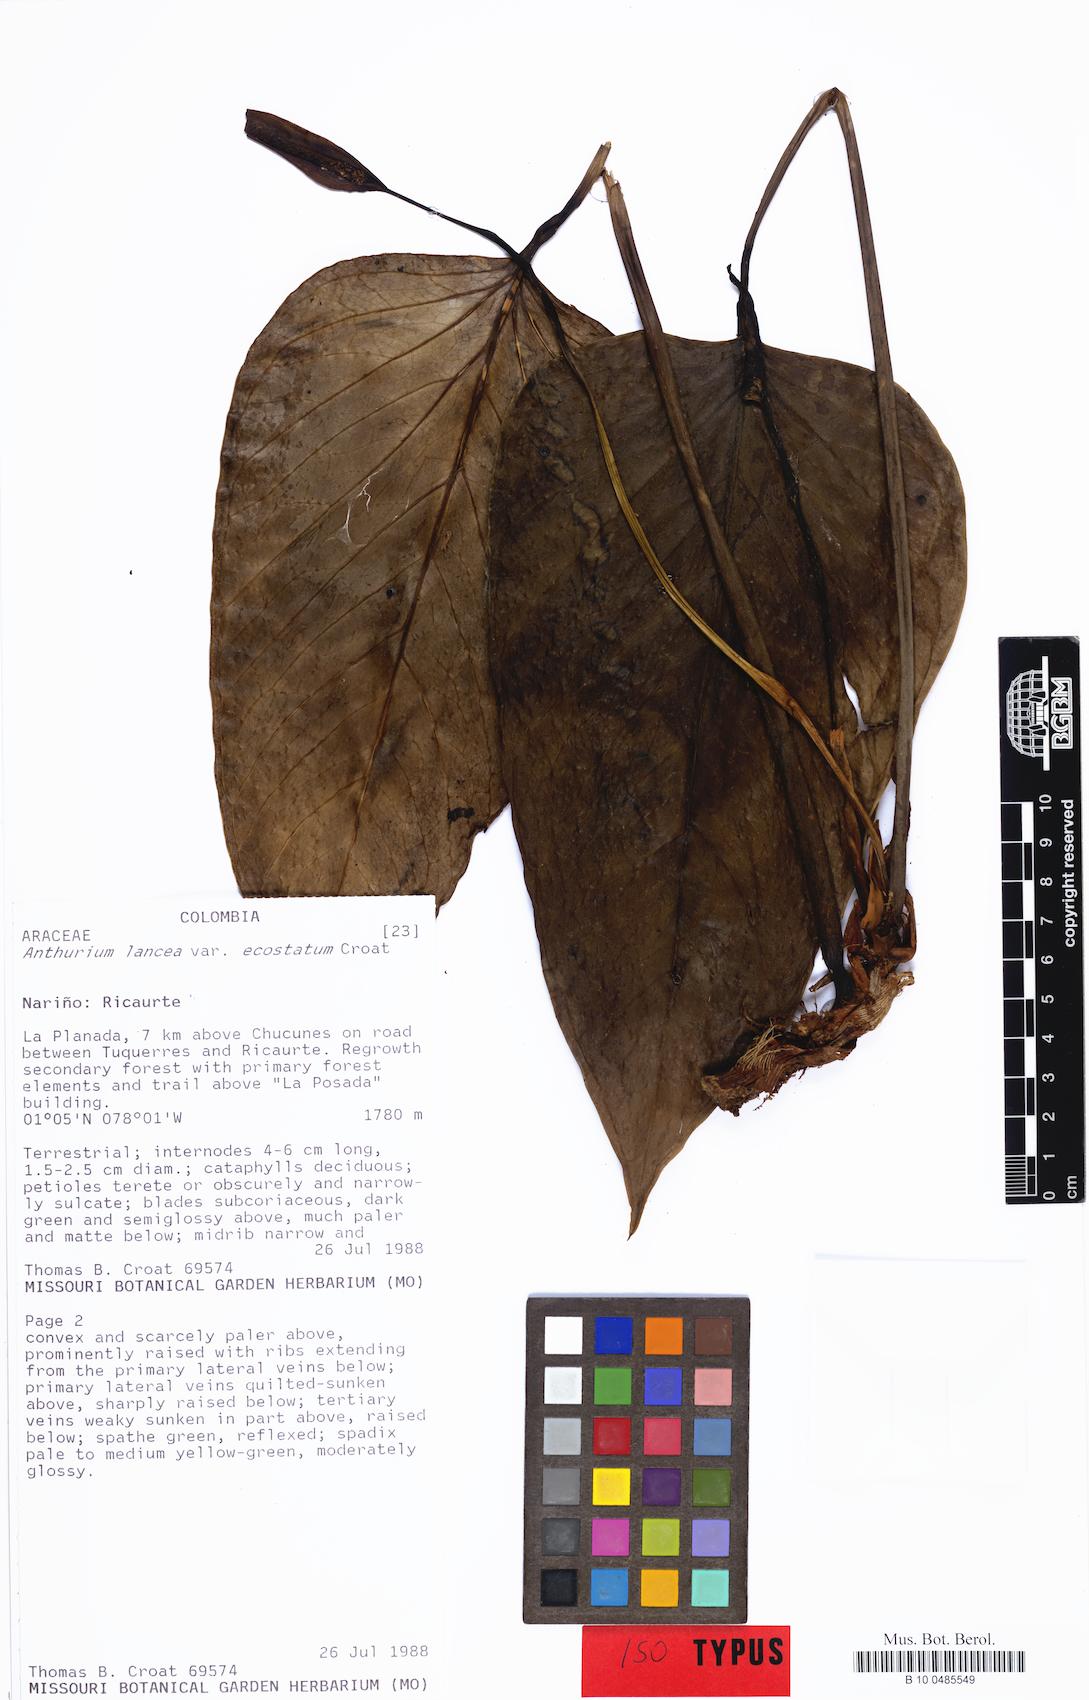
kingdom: Plantae
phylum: Tracheophyta
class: Liliopsida
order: Alismatales
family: Araceae
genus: Anthurium
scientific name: Anthurium lancea
